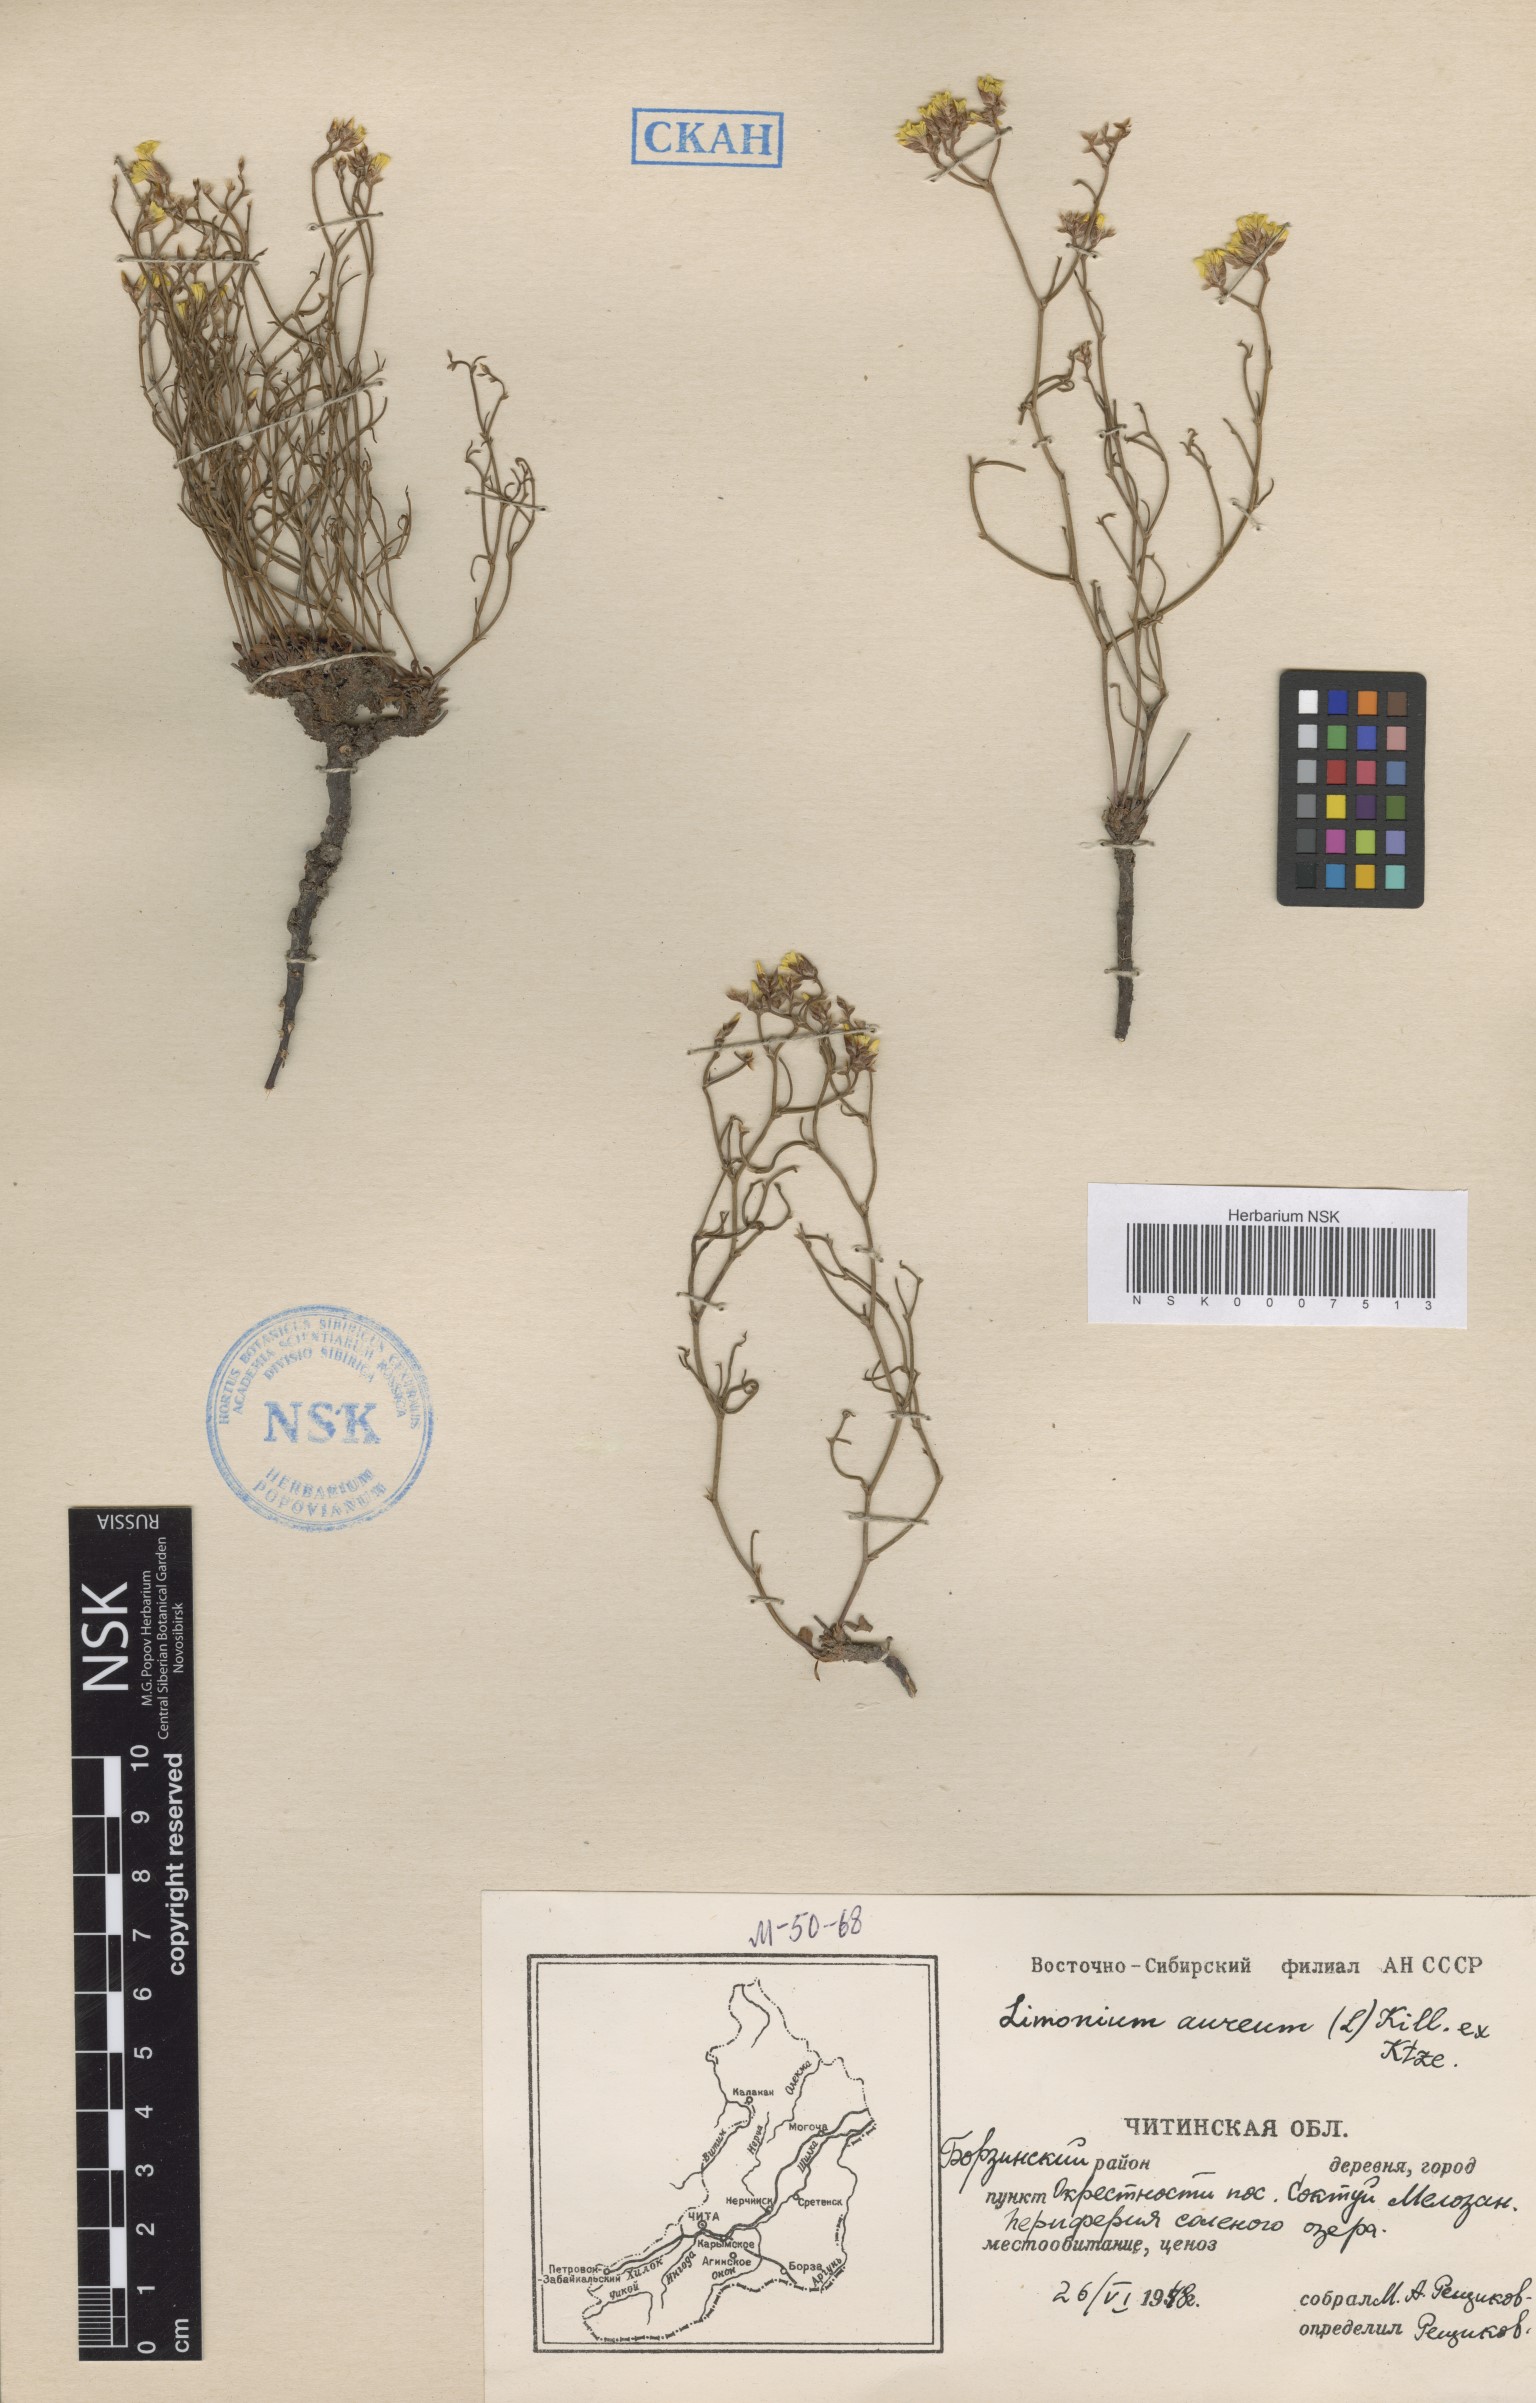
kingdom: Plantae
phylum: Tracheophyta
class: Magnoliopsida
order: Caryophyllales
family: Plumbaginaceae
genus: Limonium
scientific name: Limonium aureum
